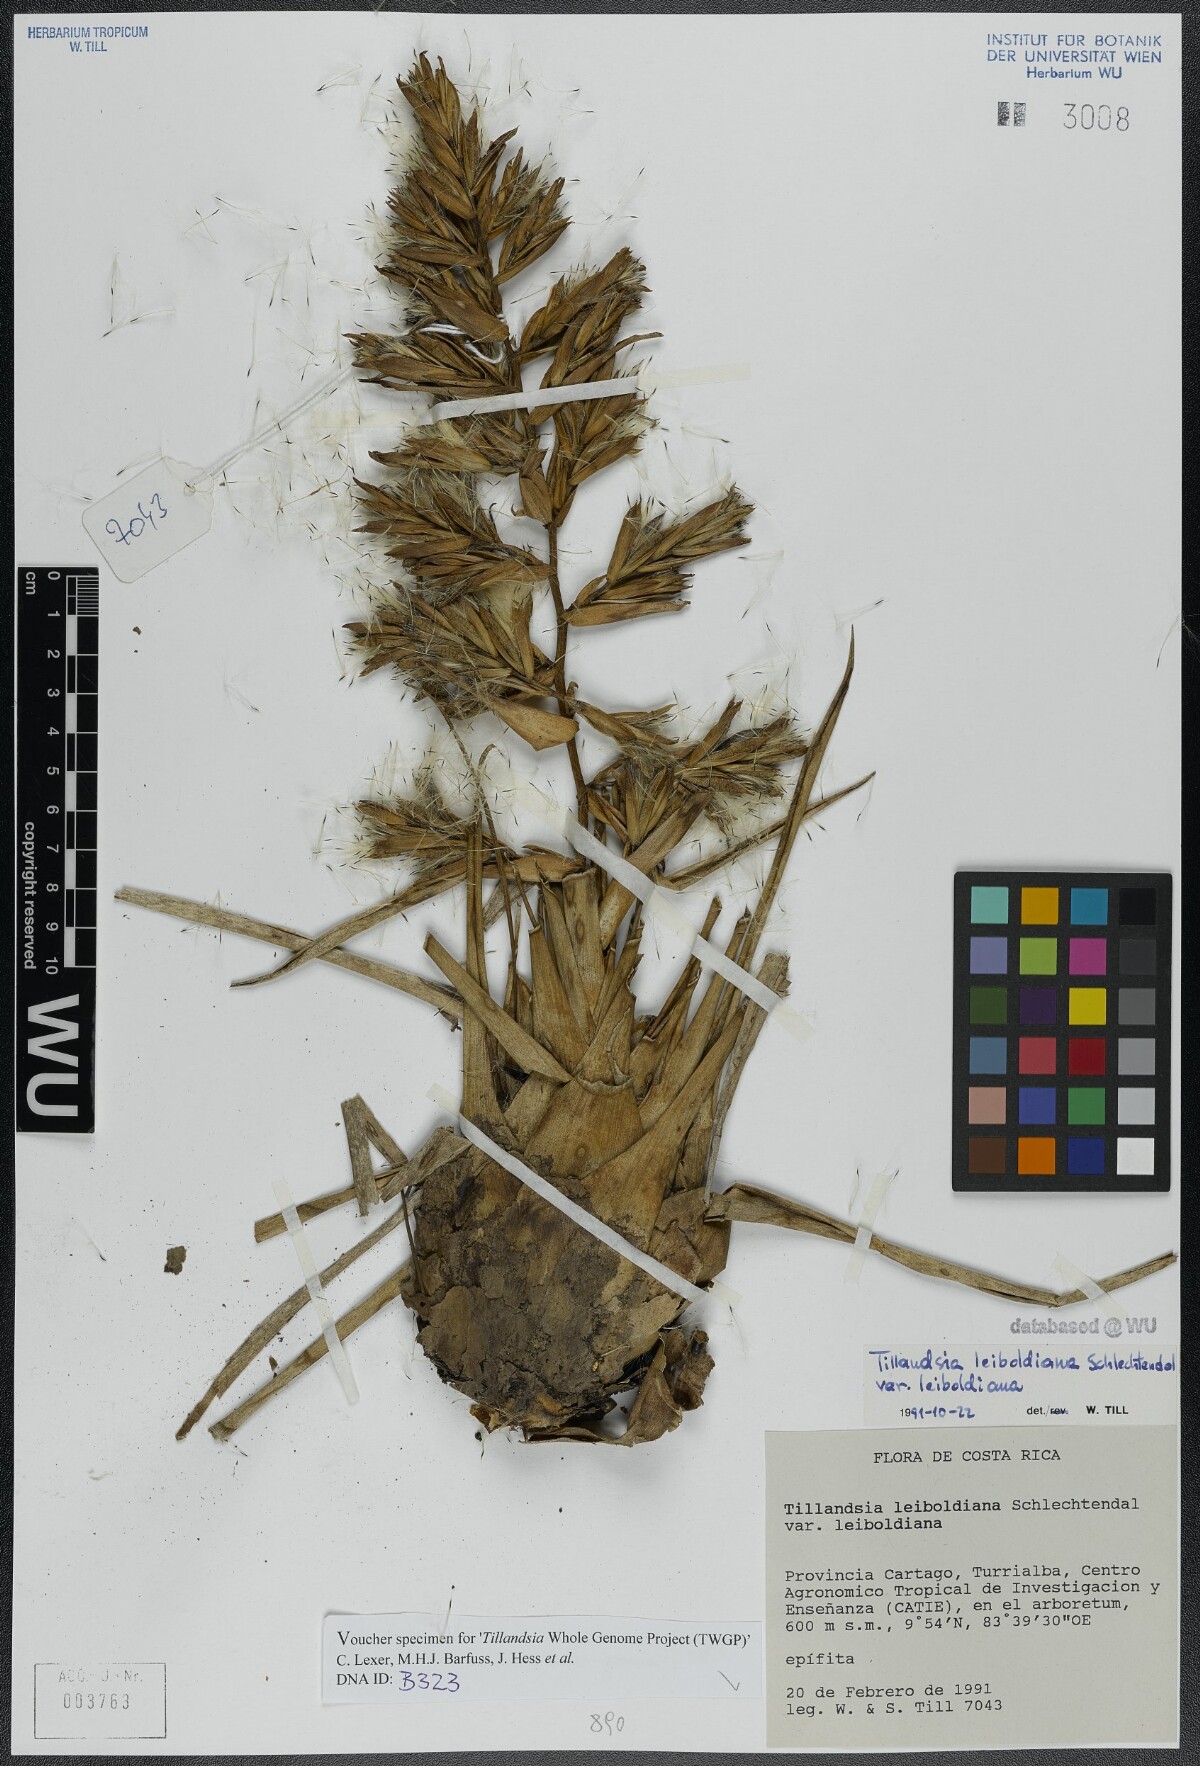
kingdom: Plantae
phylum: Tracheophyta
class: Liliopsida
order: Poales
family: Bromeliaceae
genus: Tillandsia
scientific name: Tillandsia leiboldiana
